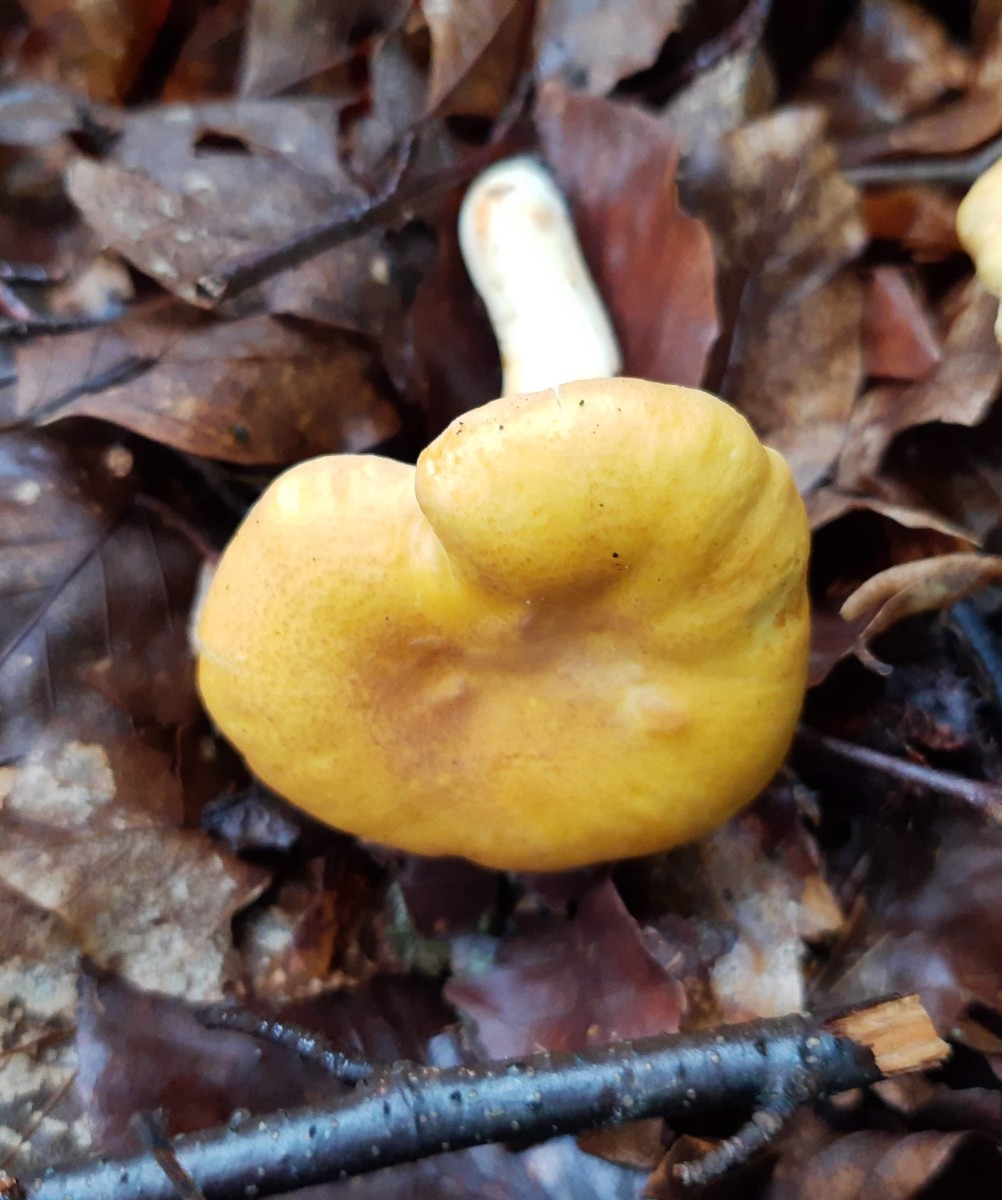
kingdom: Fungi
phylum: Basidiomycota
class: Agaricomycetes
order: Cantharellales
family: Hydnaceae
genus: Cantharellus
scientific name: Cantharellus amethysteus
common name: ametyst-kantarel
